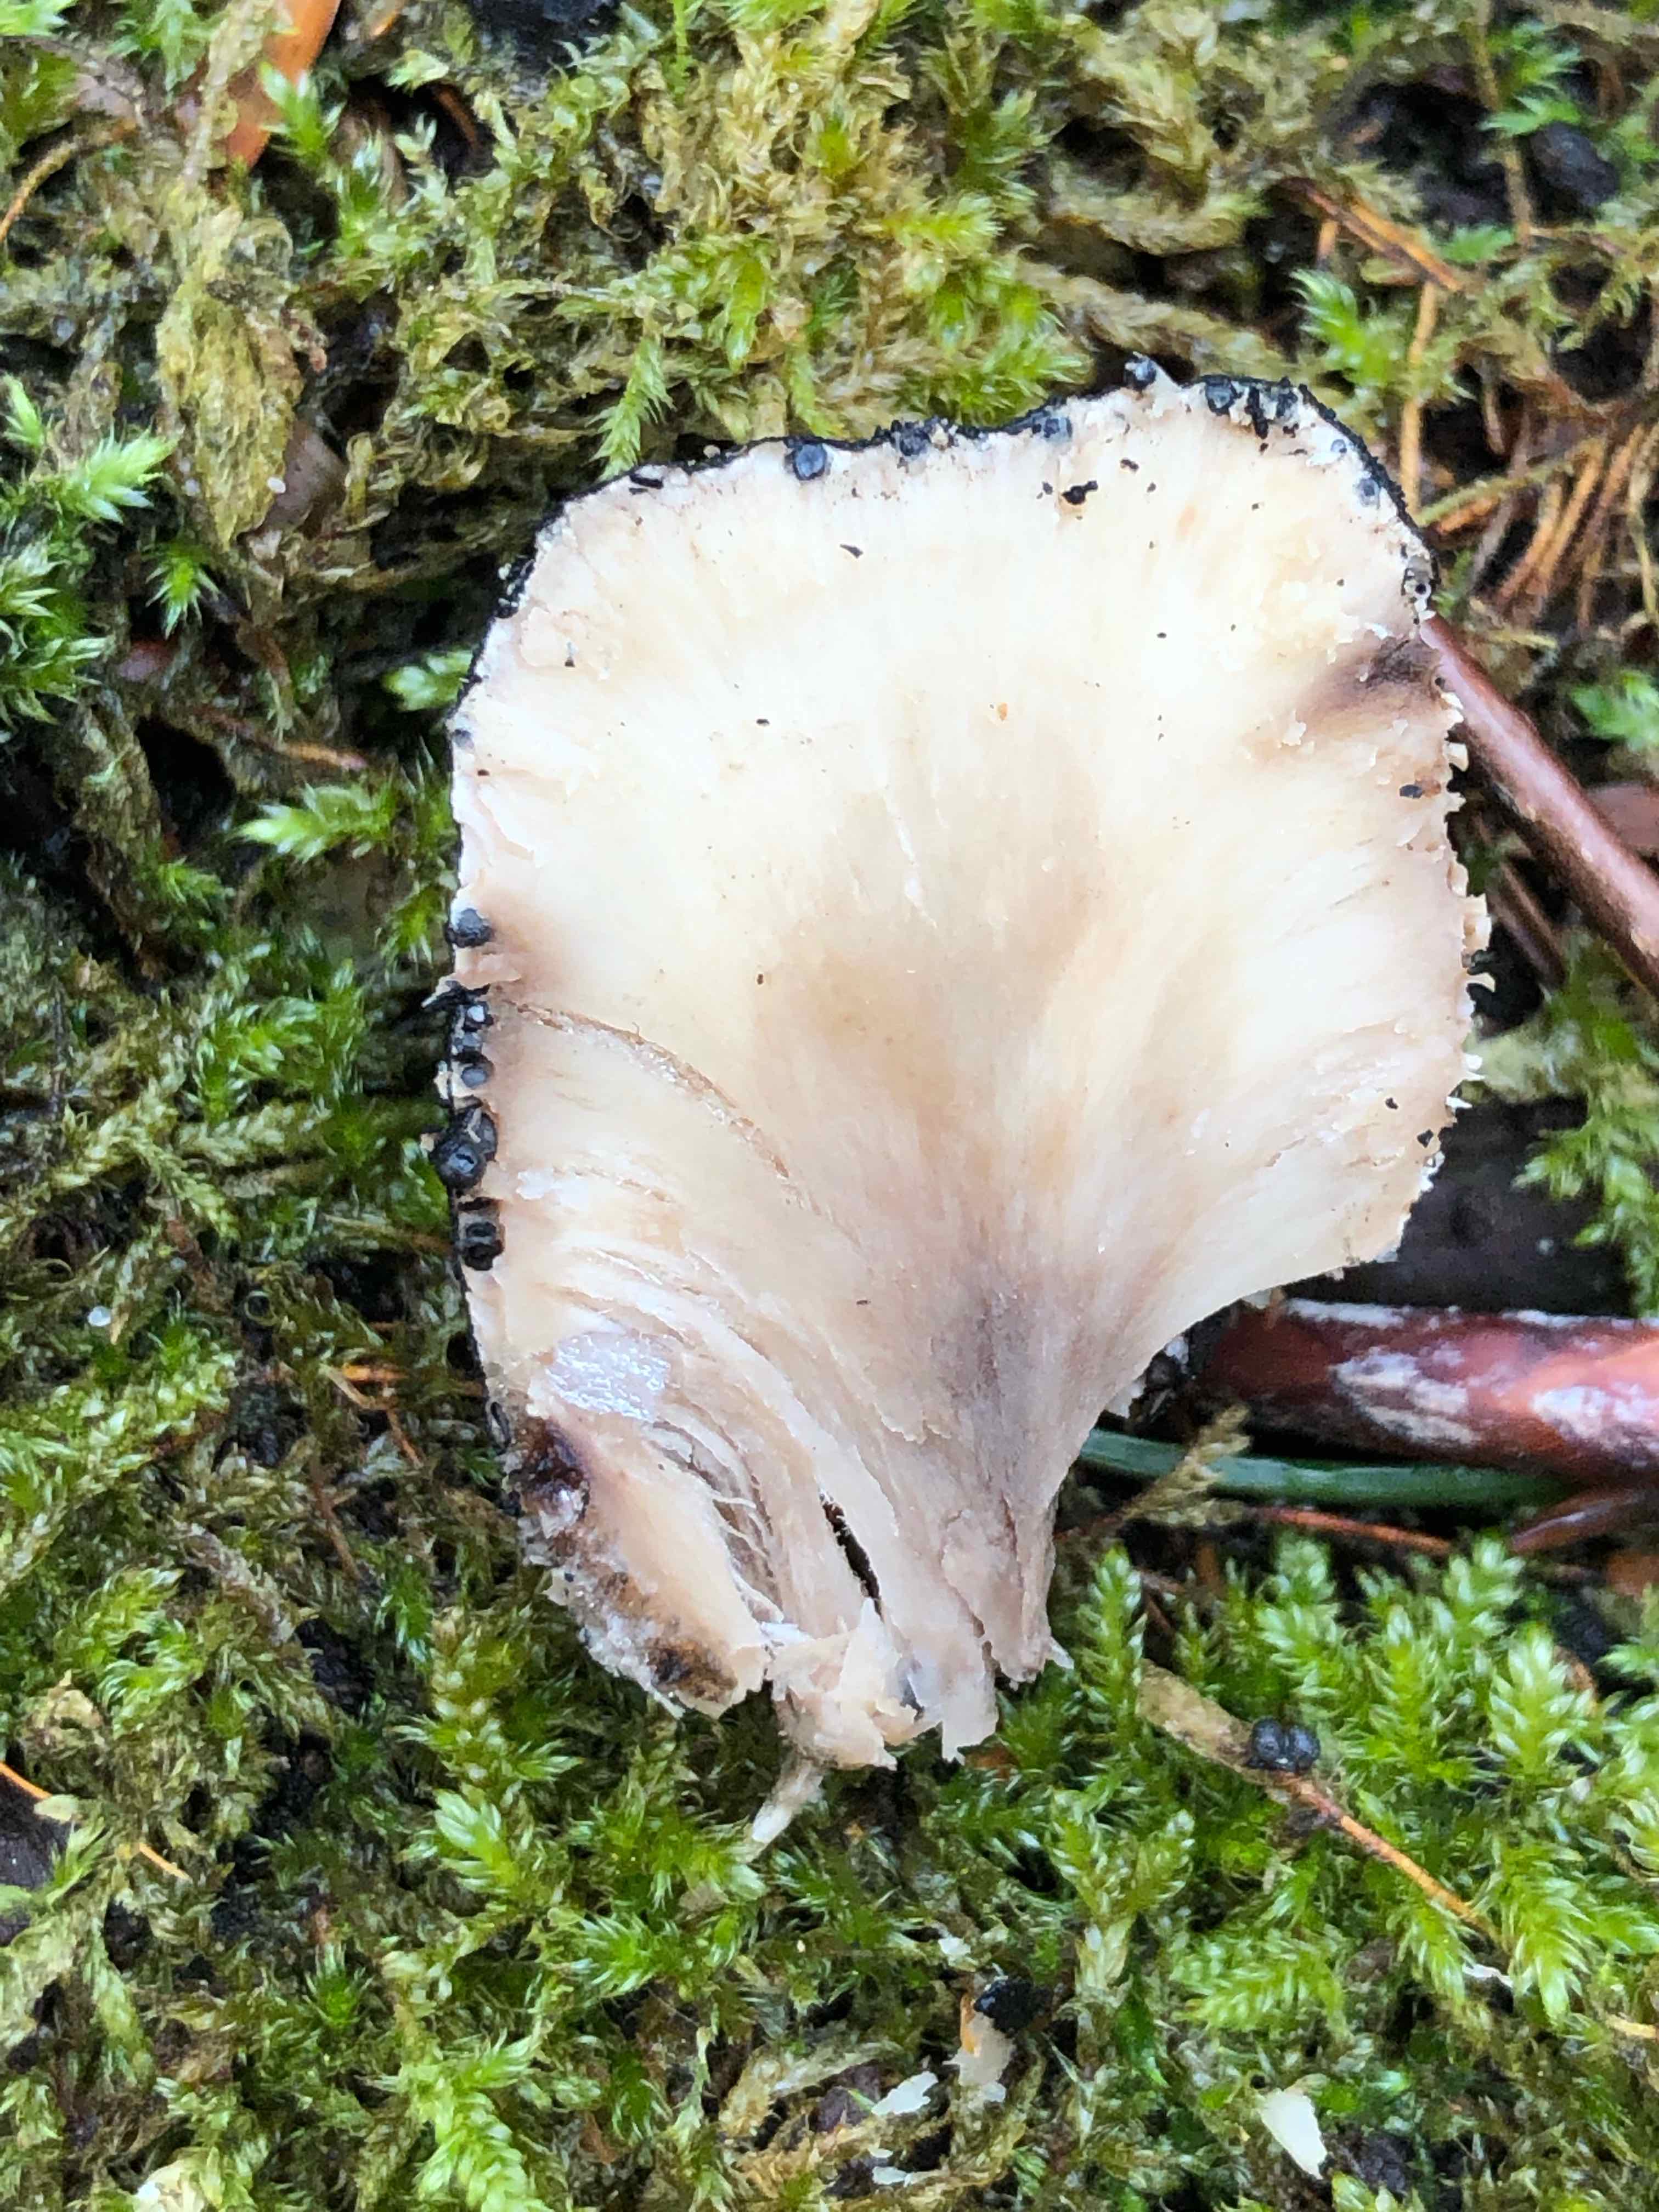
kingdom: Fungi
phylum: Ascomycota
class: Sordariomycetes
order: Xylariales
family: Xylariaceae
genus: Xylaria
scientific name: Xylaria polymorpha
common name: kølle-stødsvamp
